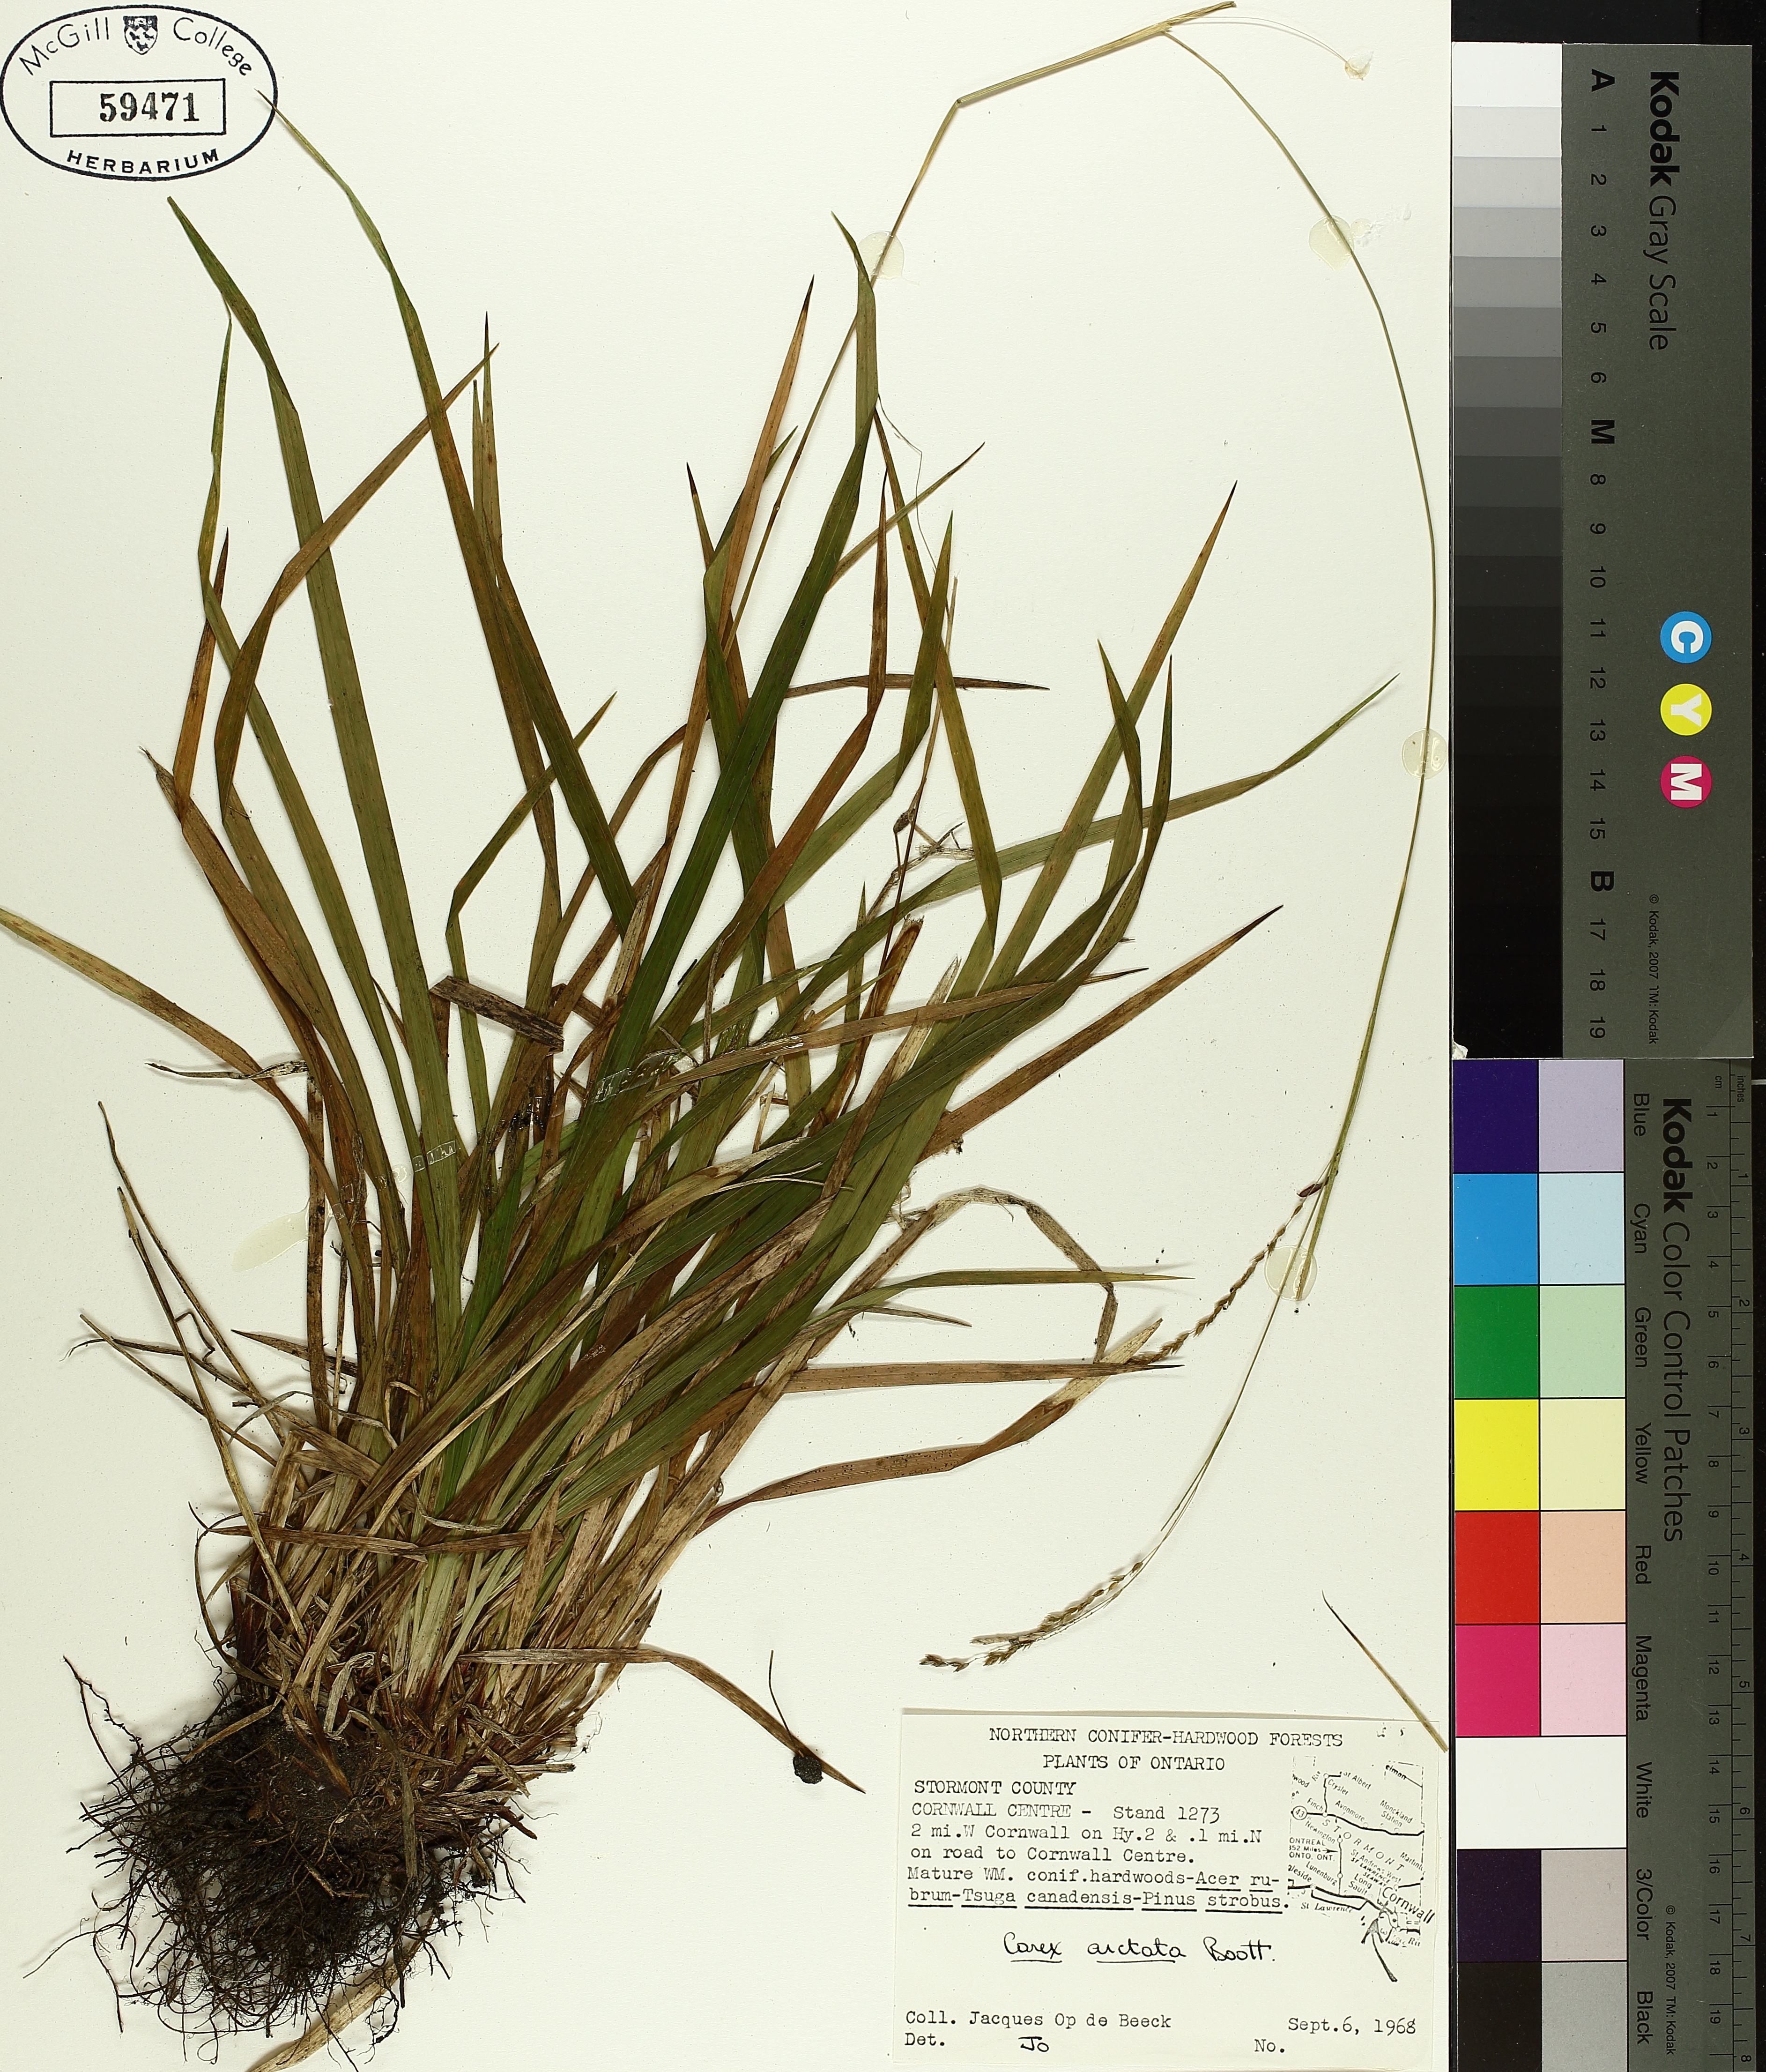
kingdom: Plantae
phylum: Tracheophyta
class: Liliopsida
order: Poales
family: Cyperaceae
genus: Carex
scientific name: Carex arctata
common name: Black sedge
